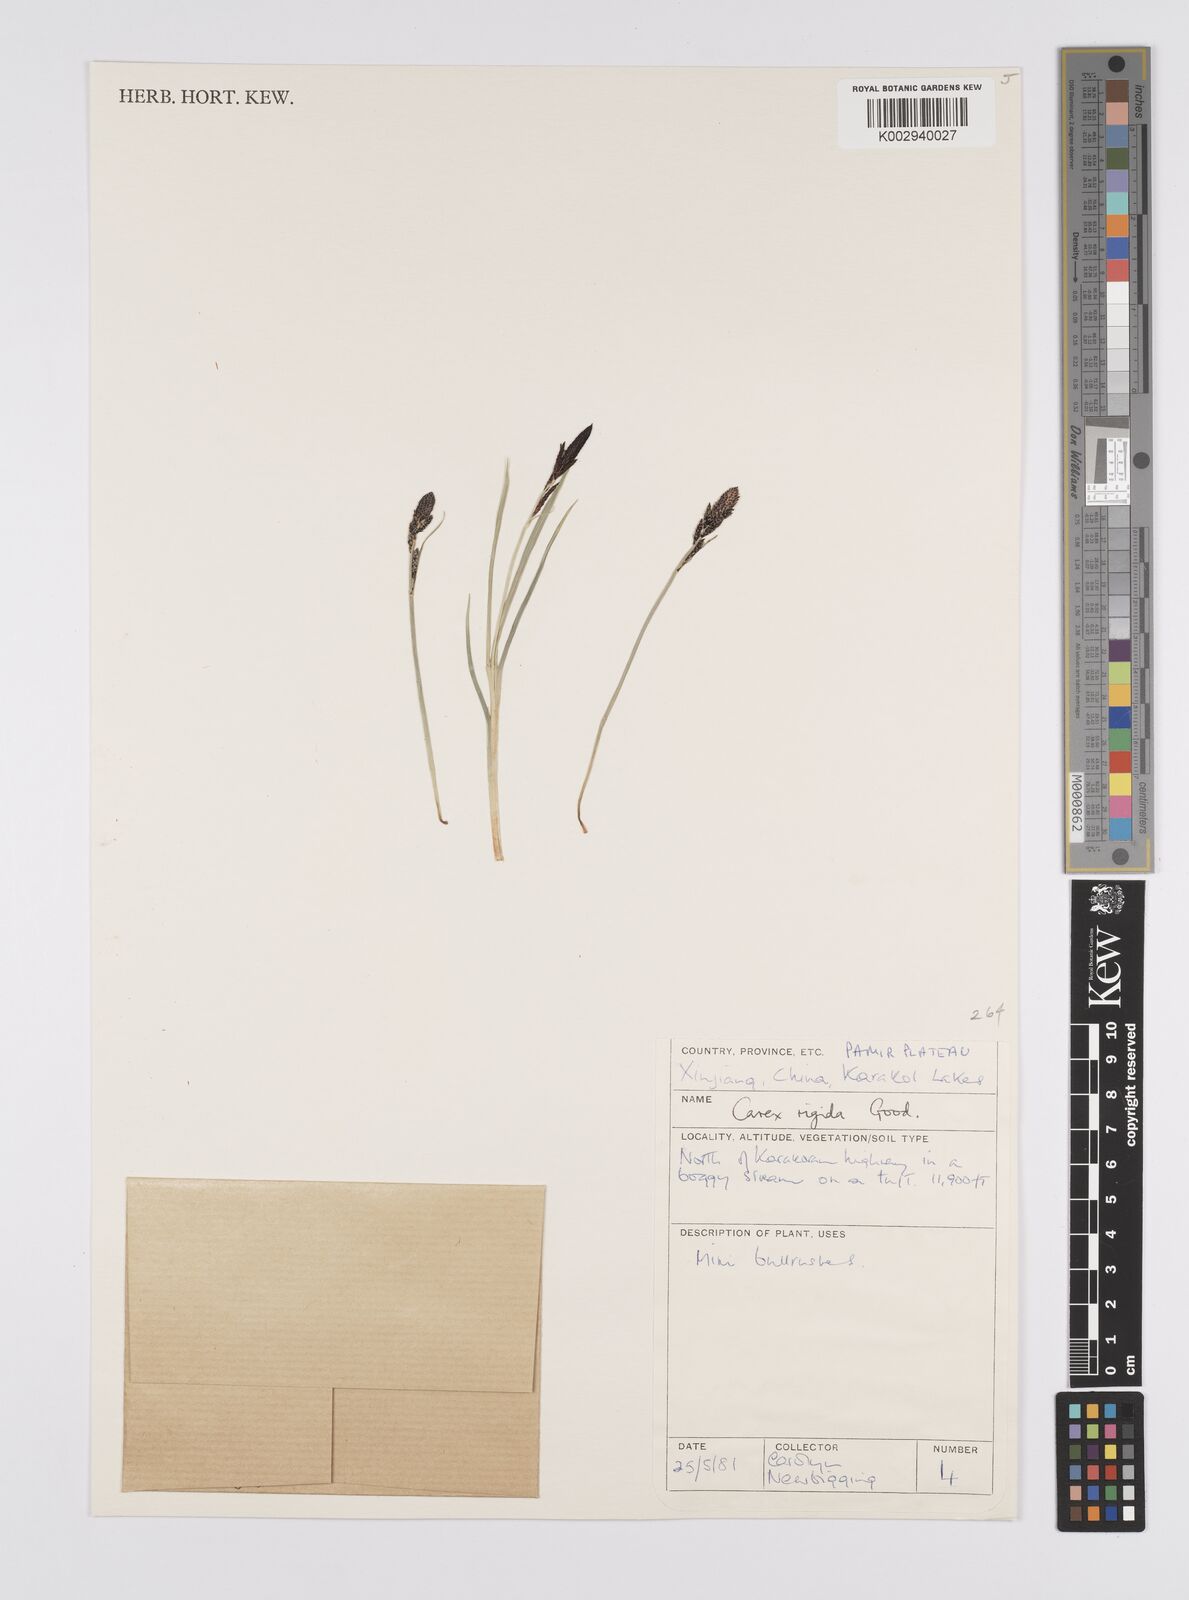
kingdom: Plantae
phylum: Tracheophyta
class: Liliopsida
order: Poales
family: Cyperaceae
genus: Carex
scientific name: Carex dacica
